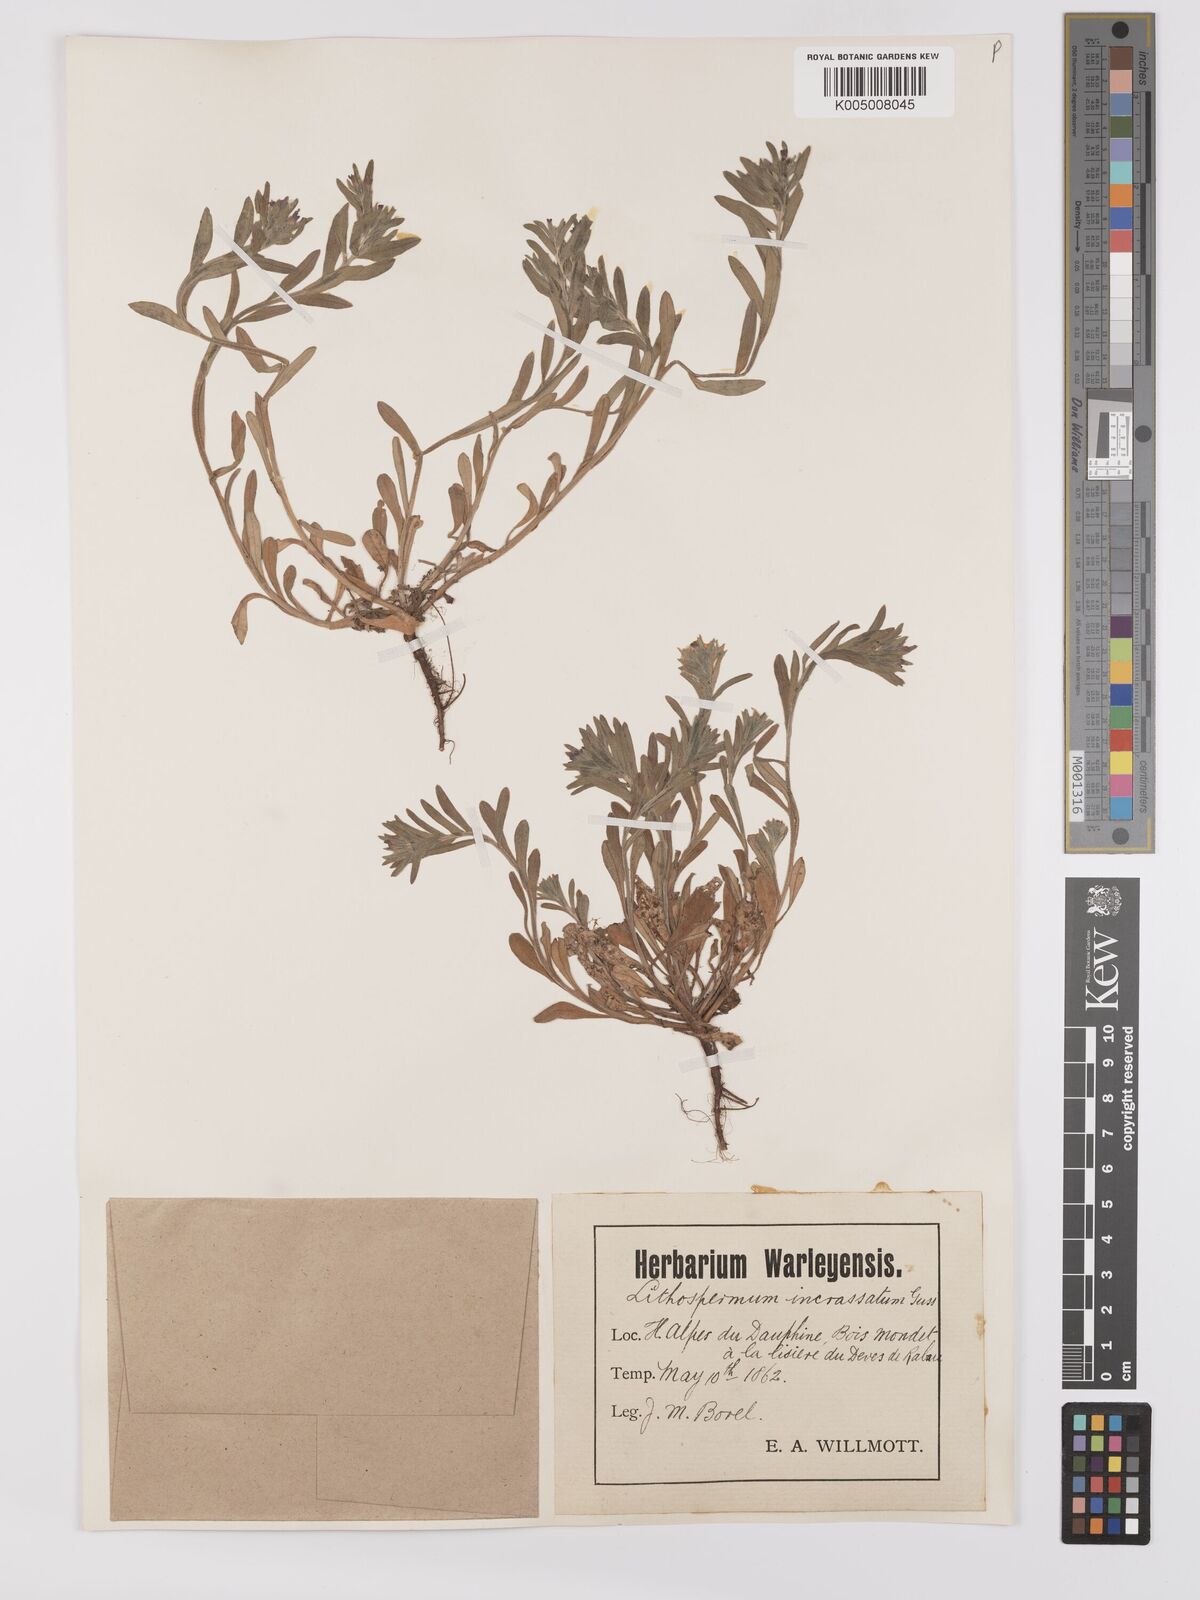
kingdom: Plantae
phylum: Tracheophyta
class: Magnoliopsida
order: Boraginales
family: Boraginaceae
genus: Buglossoides
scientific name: Buglossoides incrassata
